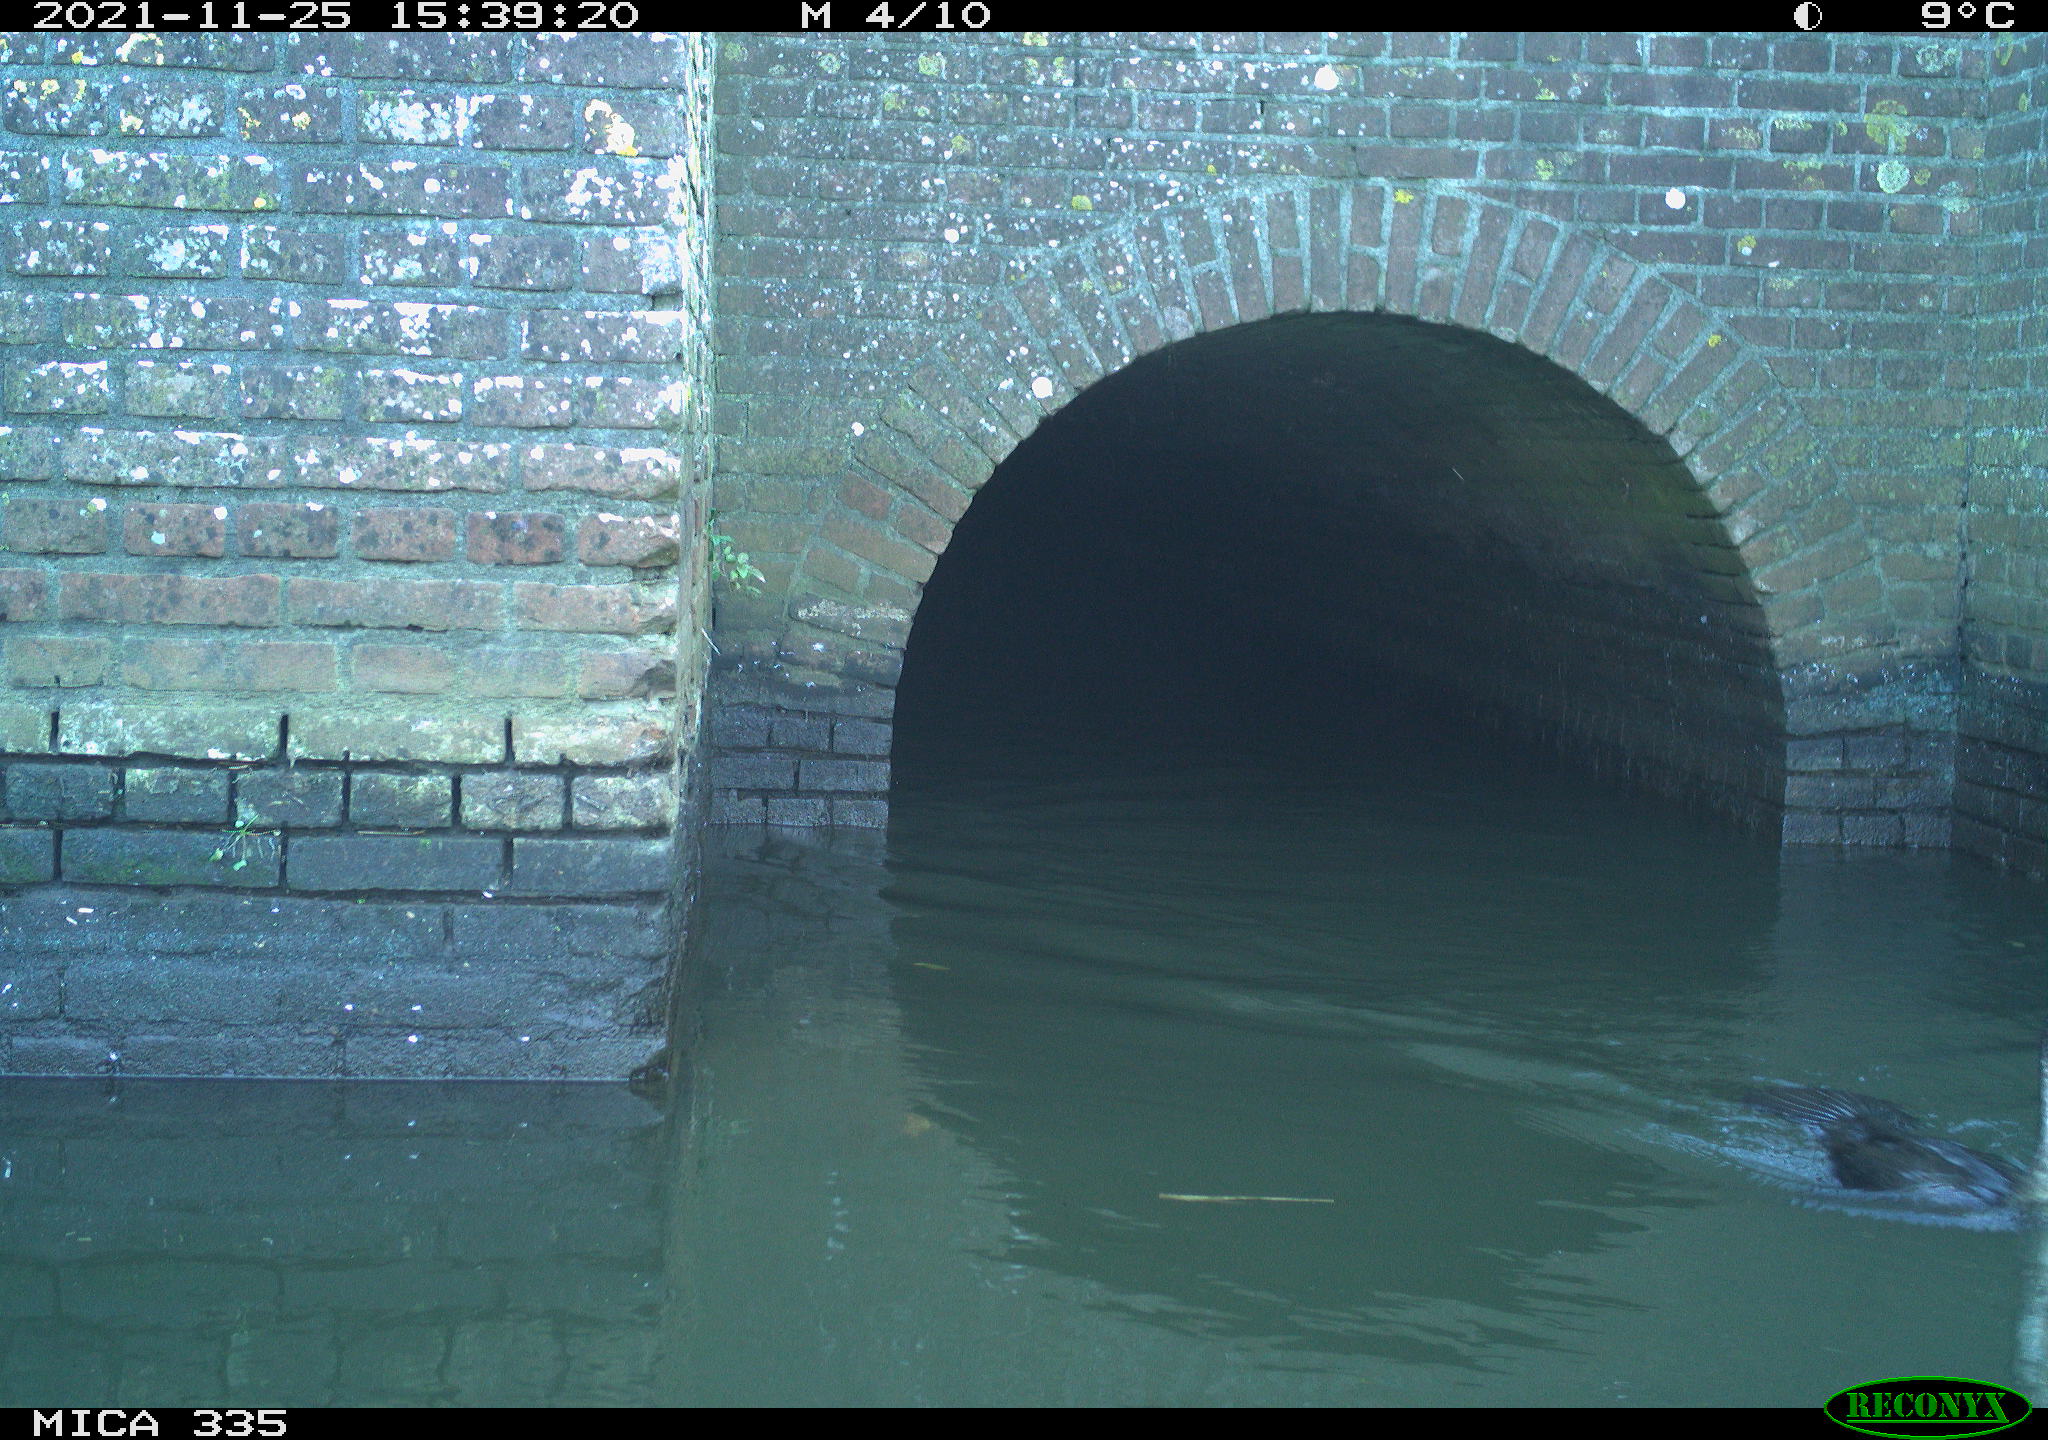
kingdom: Animalia
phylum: Chordata
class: Aves
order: Suliformes
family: Phalacrocoracidae
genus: Phalacrocorax
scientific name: Phalacrocorax carbo
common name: Great cormorant
